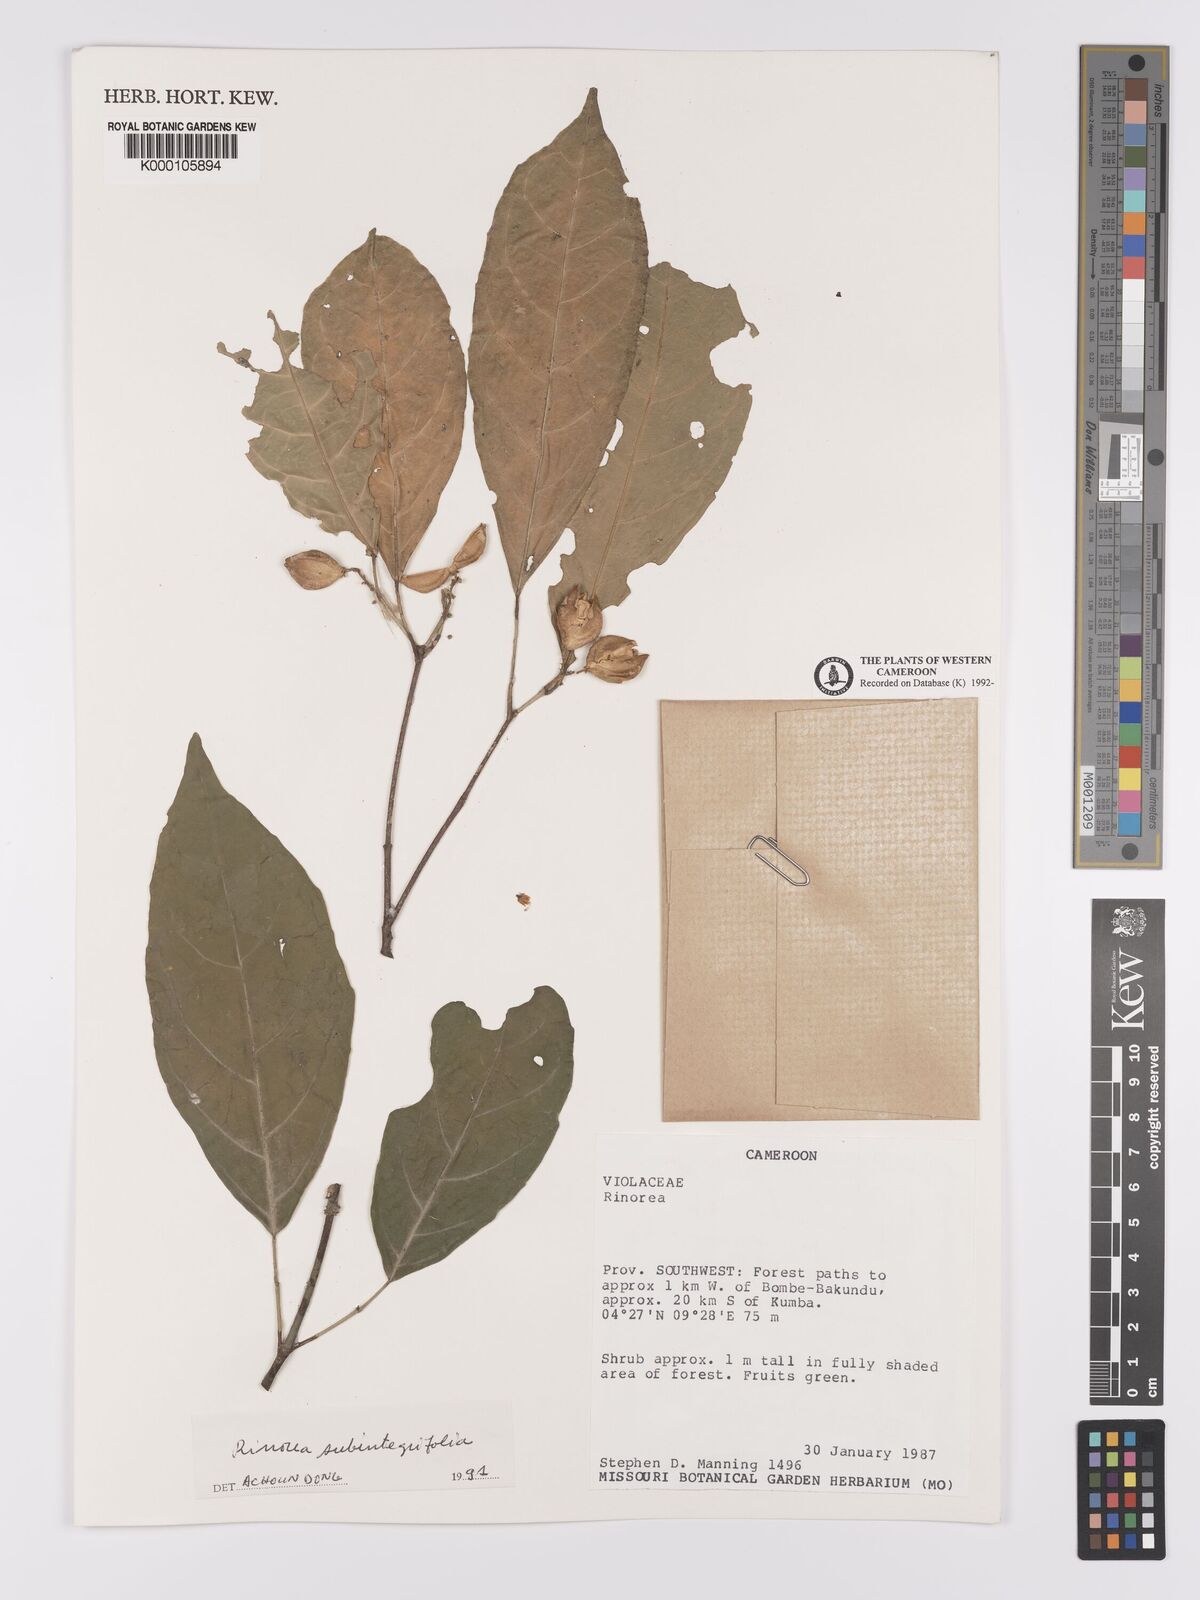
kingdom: Plantae
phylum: Tracheophyta
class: Magnoliopsida
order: Malpighiales
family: Violaceae
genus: Rinorea
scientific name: Rinorea subintegrifolia
